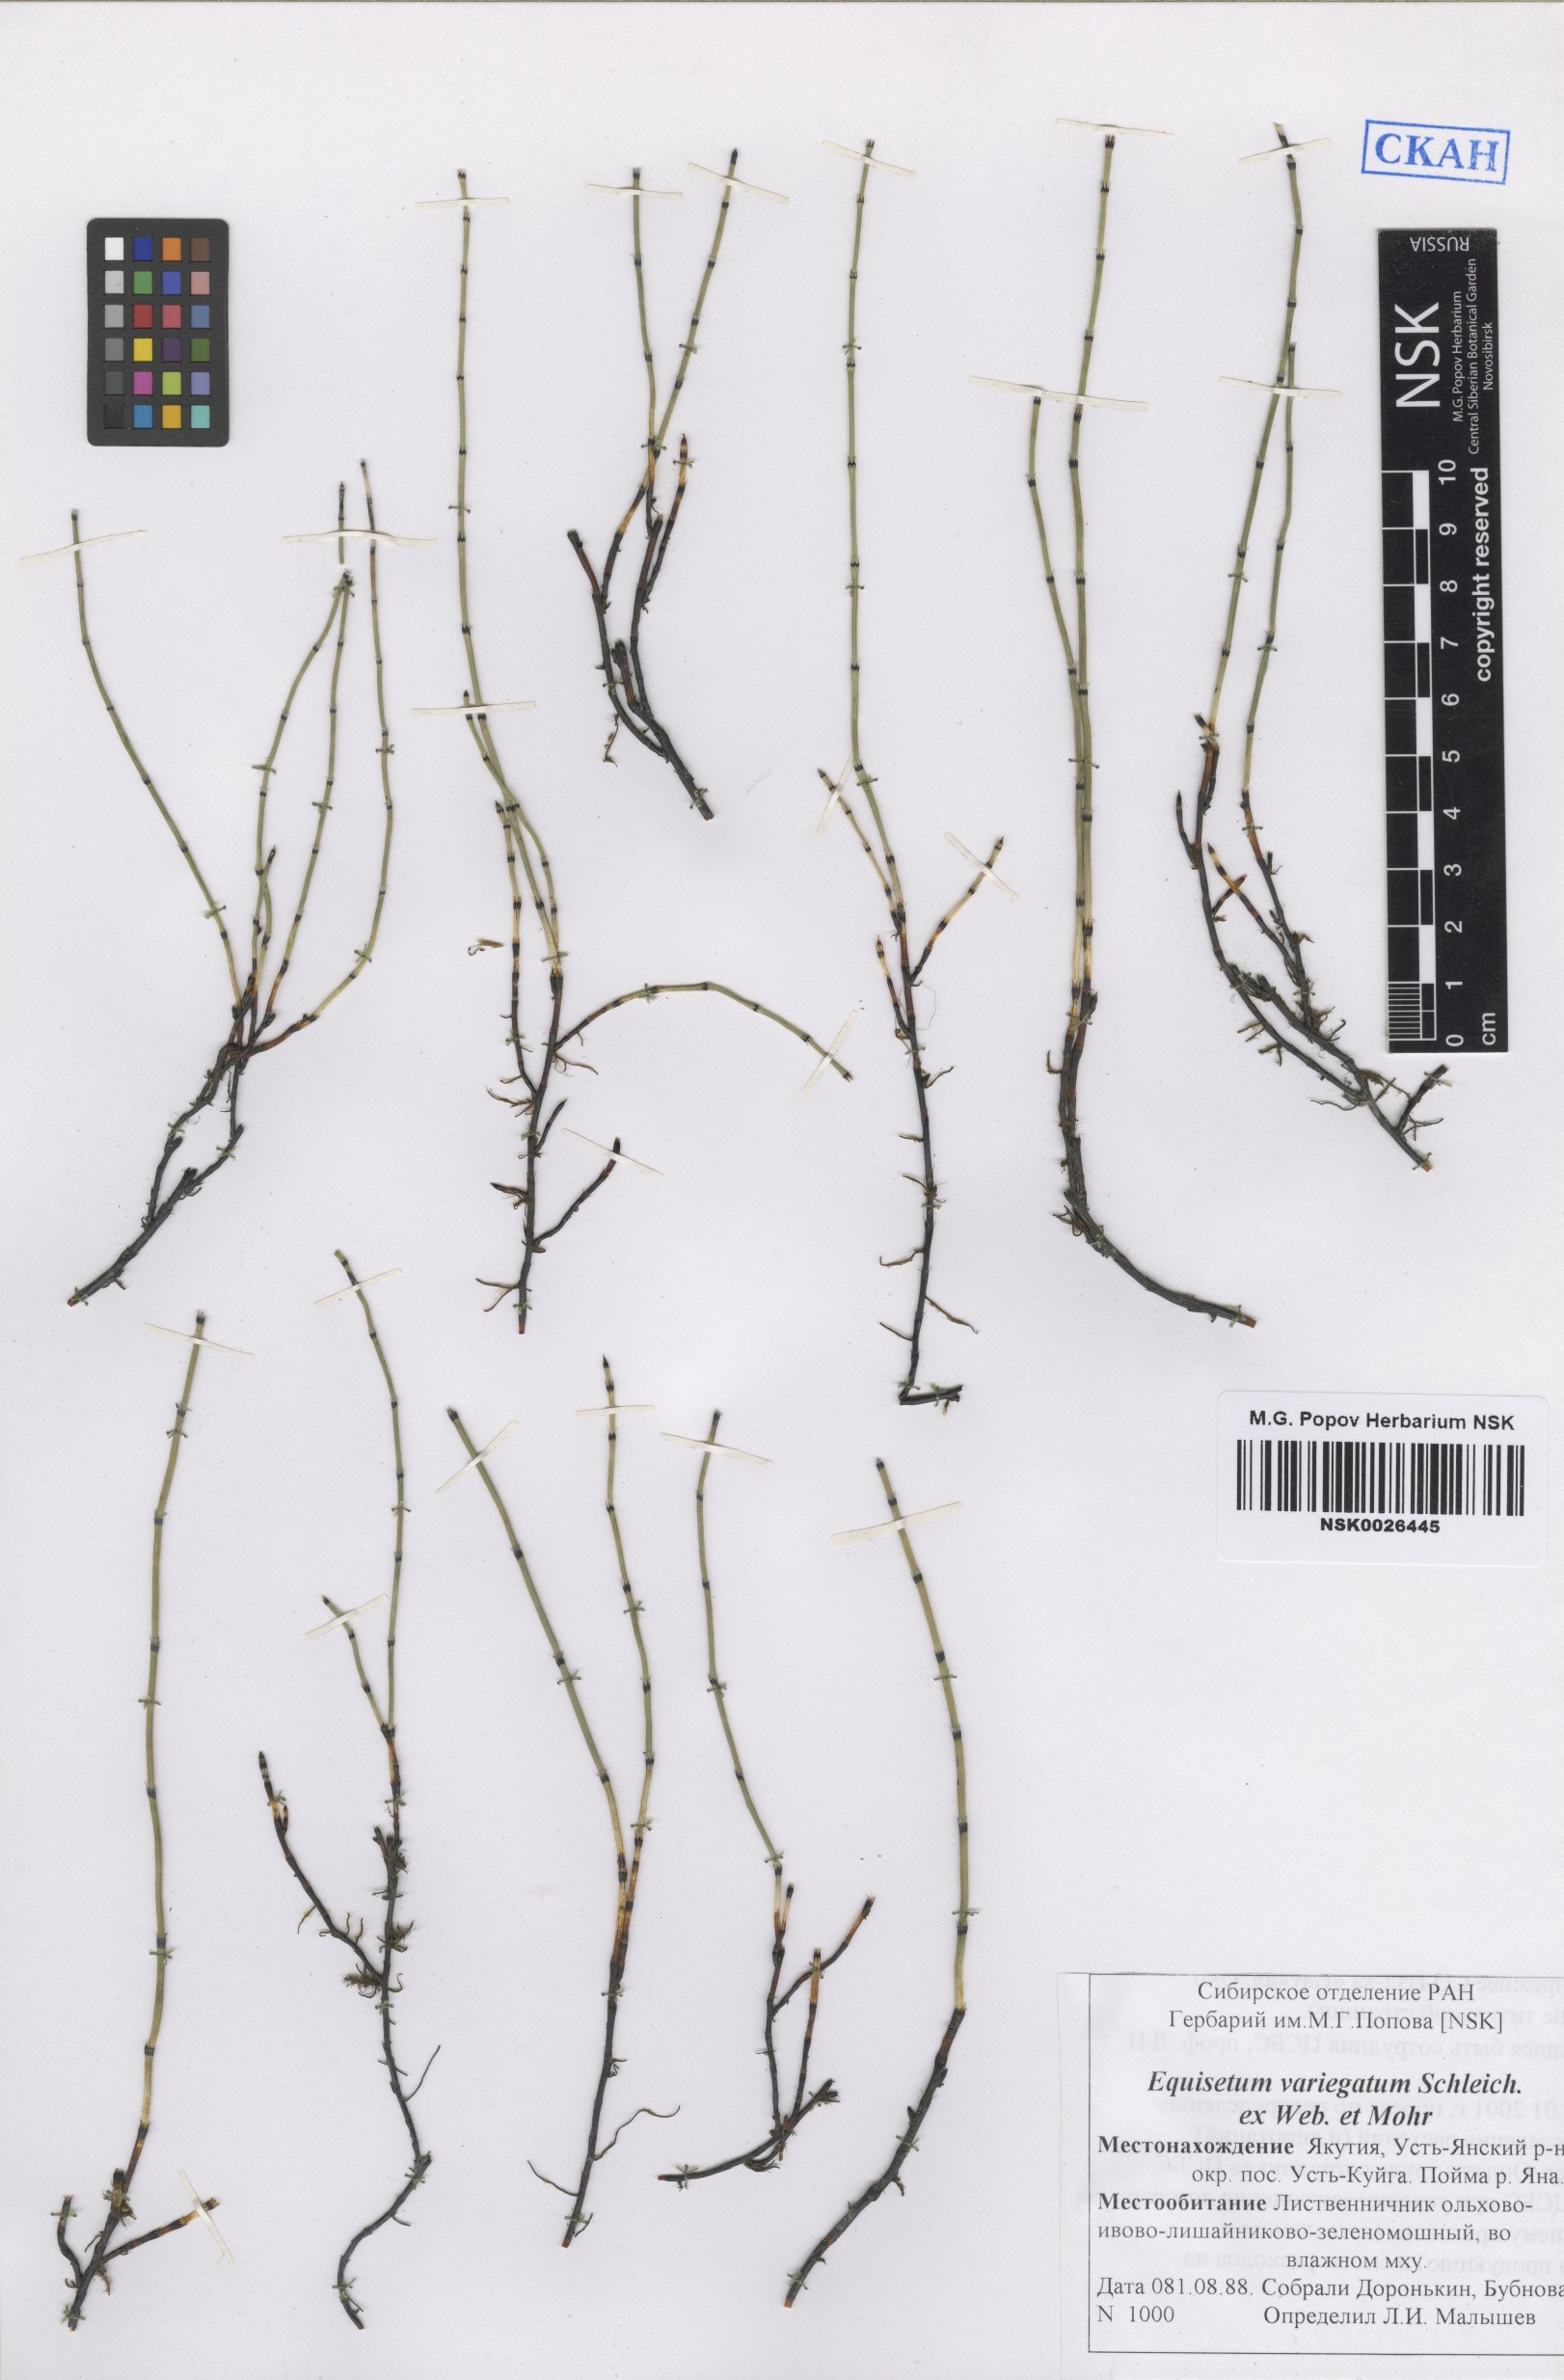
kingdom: Plantae
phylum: Tracheophyta
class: Polypodiopsida
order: Equisetales
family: Equisetaceae
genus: Equisetum
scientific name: Equisetum variegatum
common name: Variegated horsetail
